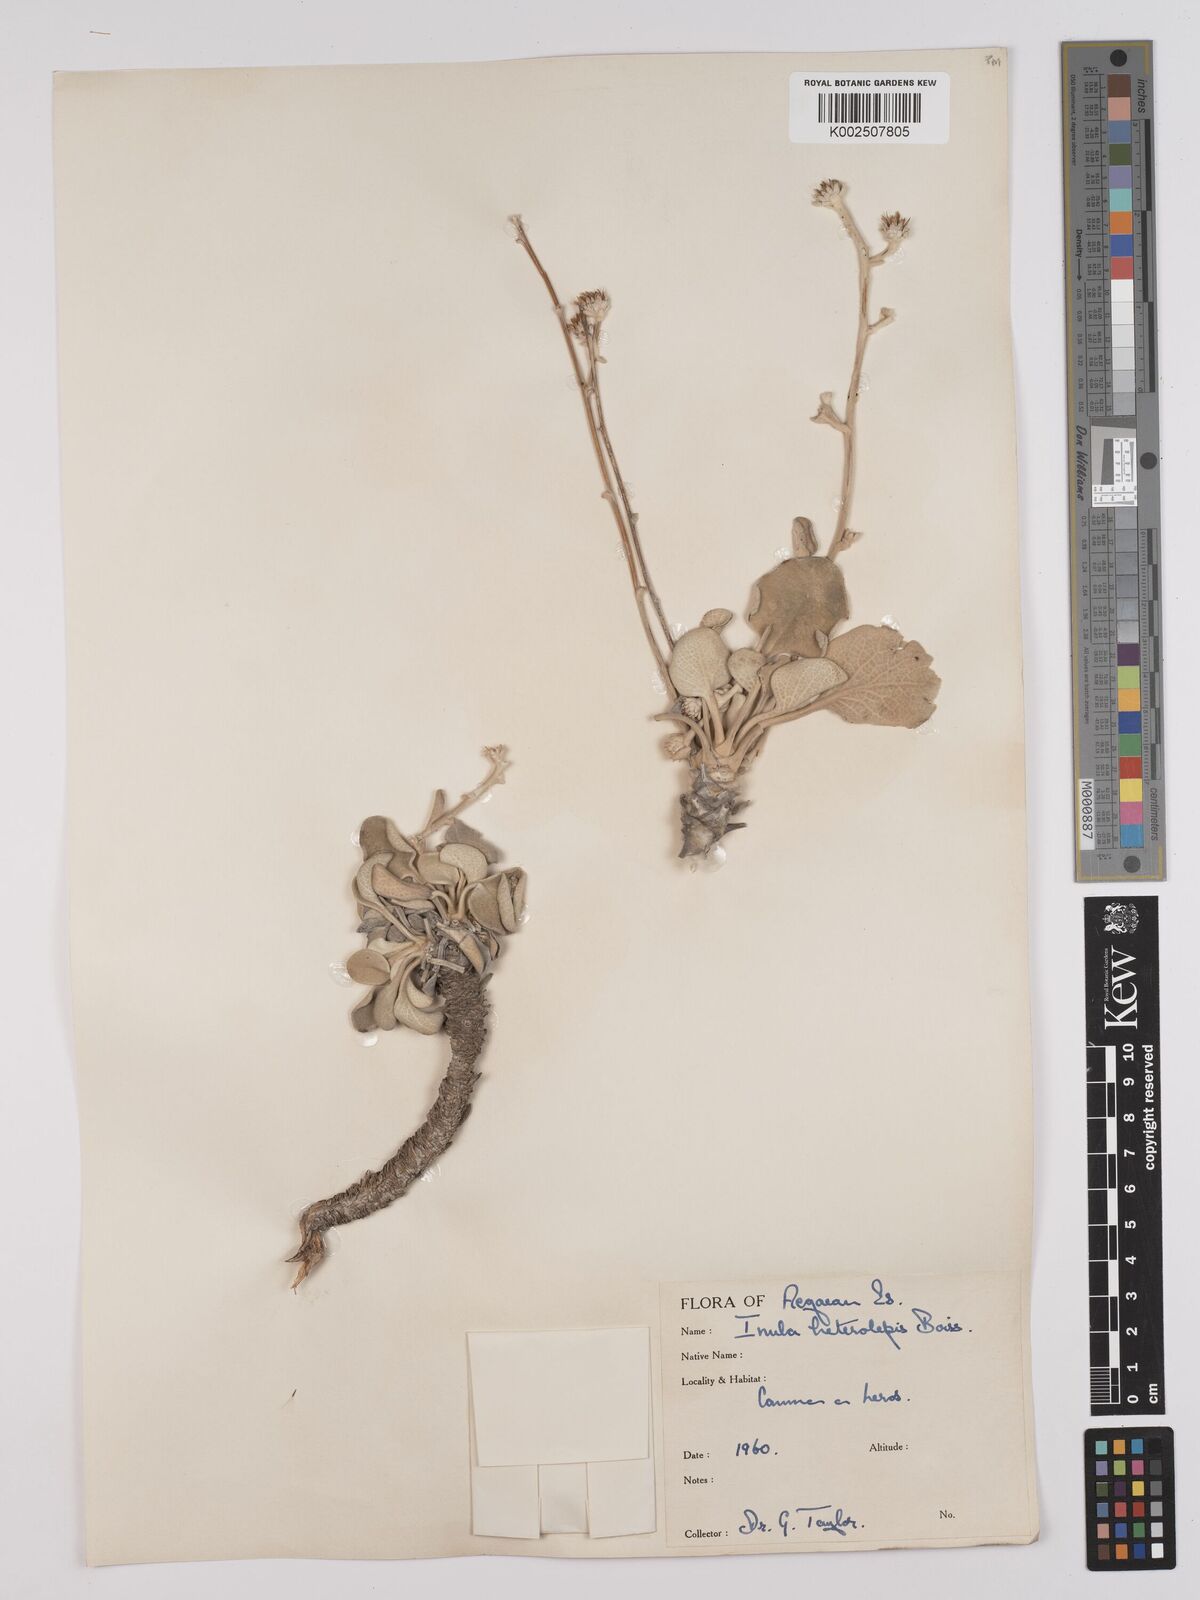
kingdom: Plantae
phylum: Tracheophyta
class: Magnoliopsida
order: Asterales
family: Asteraceae
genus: Pentanema
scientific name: Pentanema verbascifolium
